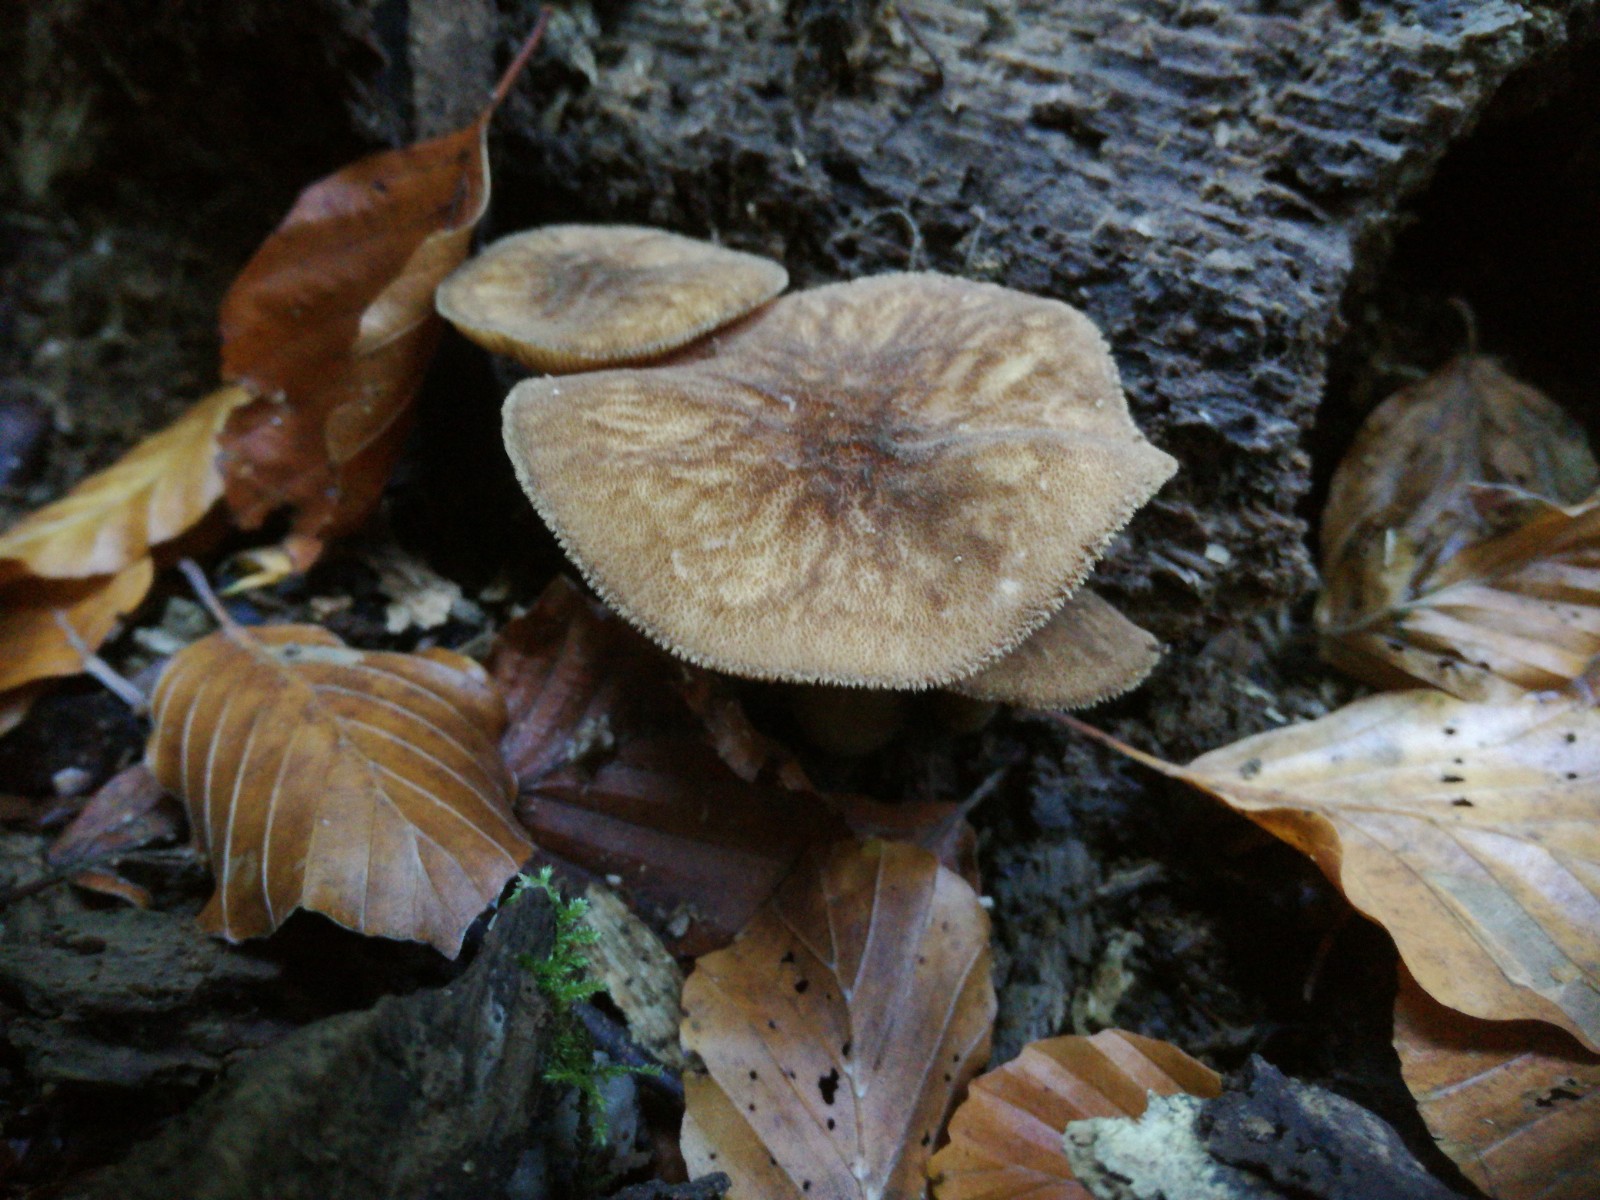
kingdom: Fungi
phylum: Basidiomycota
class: Agaricomycetes
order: Agaricales
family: Pluteaceae
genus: Pluteus
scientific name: Pluteus umbrosus
